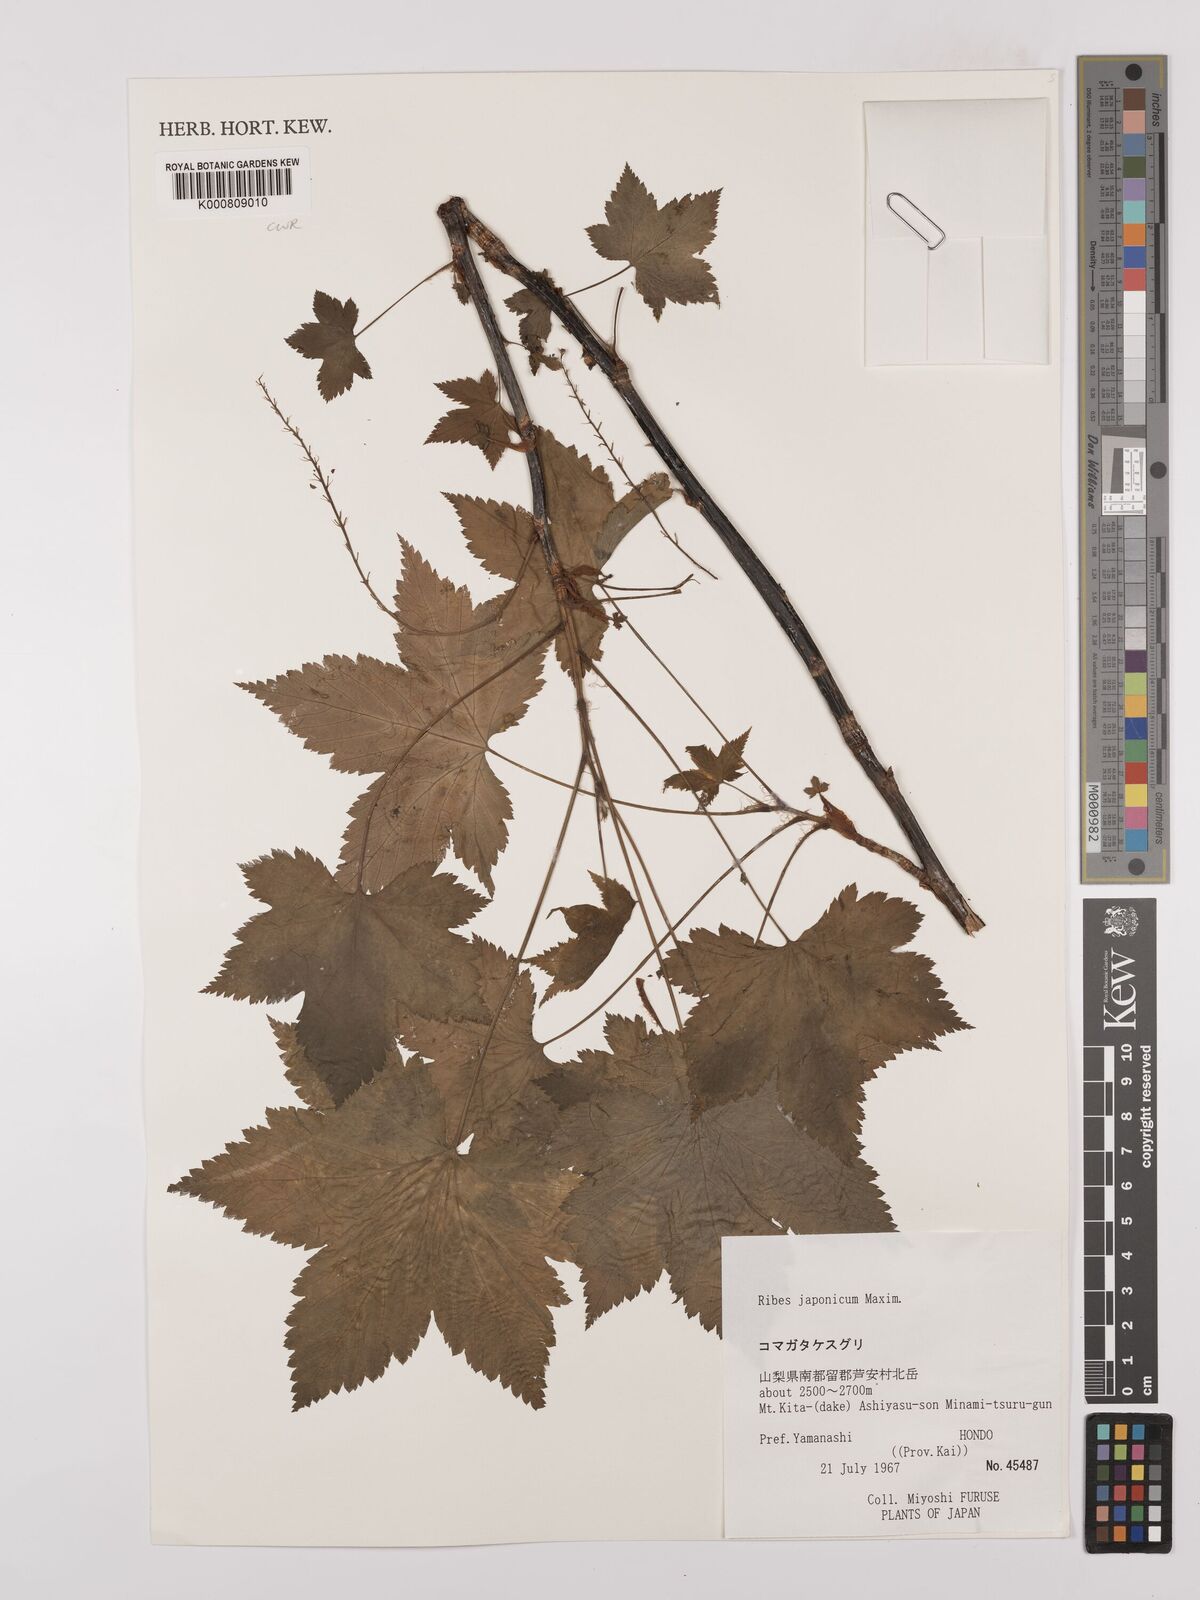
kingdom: Plantae
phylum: Tracheophyta
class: Magnoliopsida
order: Saxifragales
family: Grossulariaceae
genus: Ribes
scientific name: Ribes japonicum
